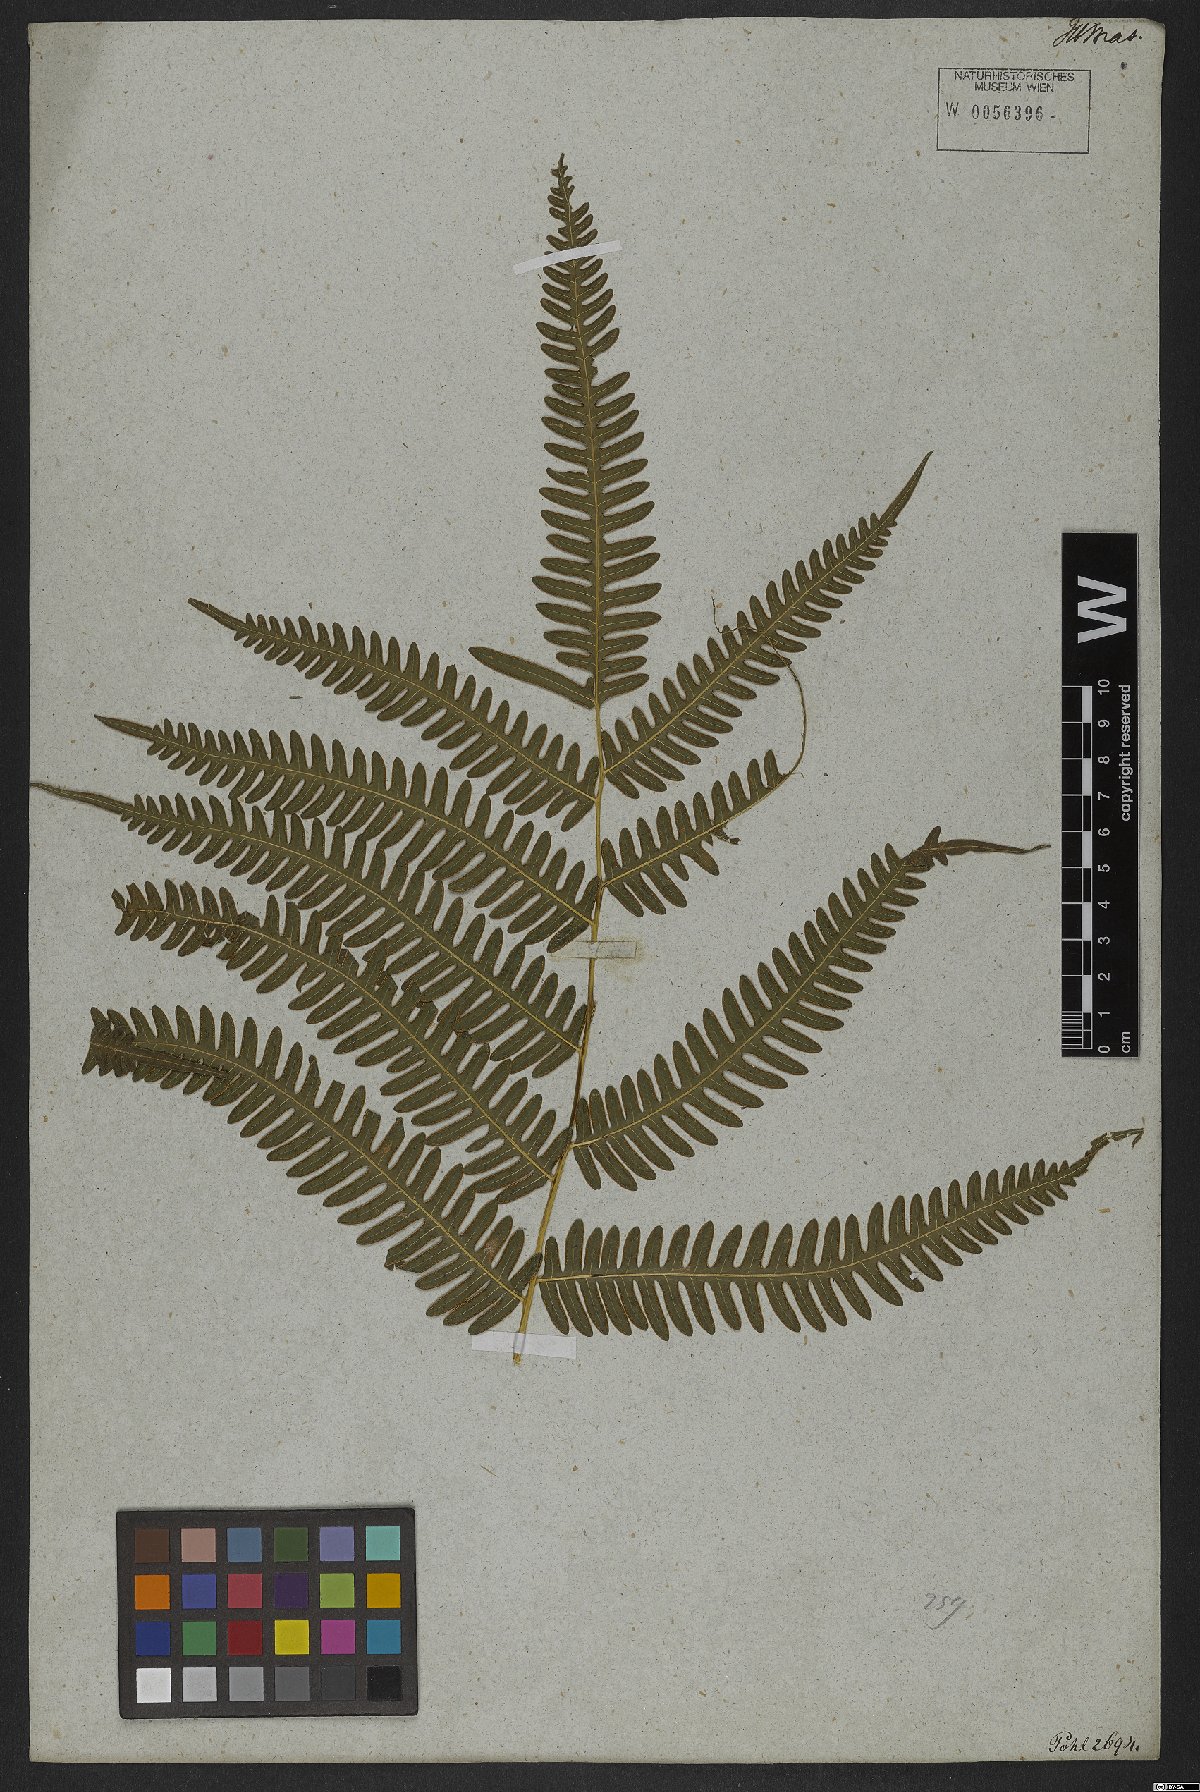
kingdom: Plantae
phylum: Tracheophyta
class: Polypodiopsida
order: Polypodiales
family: Pteridaceae
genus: Pteris
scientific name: Pteris biaurita
